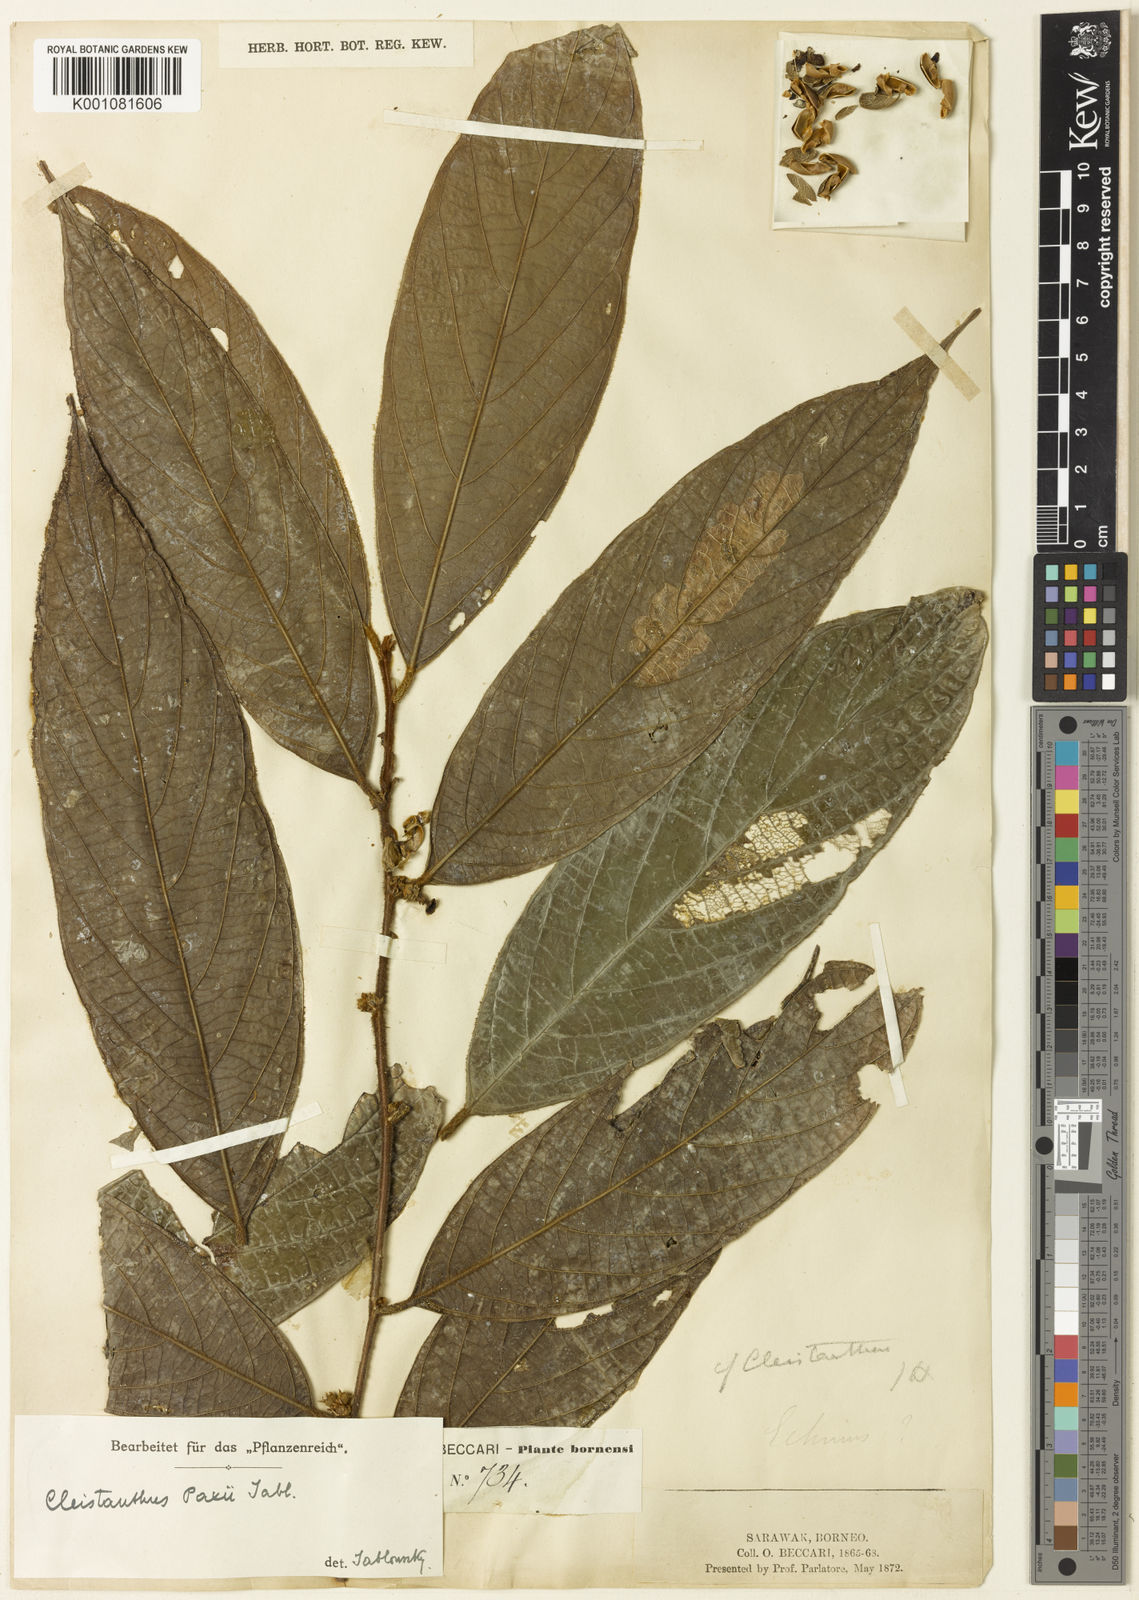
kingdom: Plantae
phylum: Tracheophyta
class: Magnoliopsida
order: Malpighiales
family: Phyllanthaceae
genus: Cleistanthus
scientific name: Cleistanthus paxii
